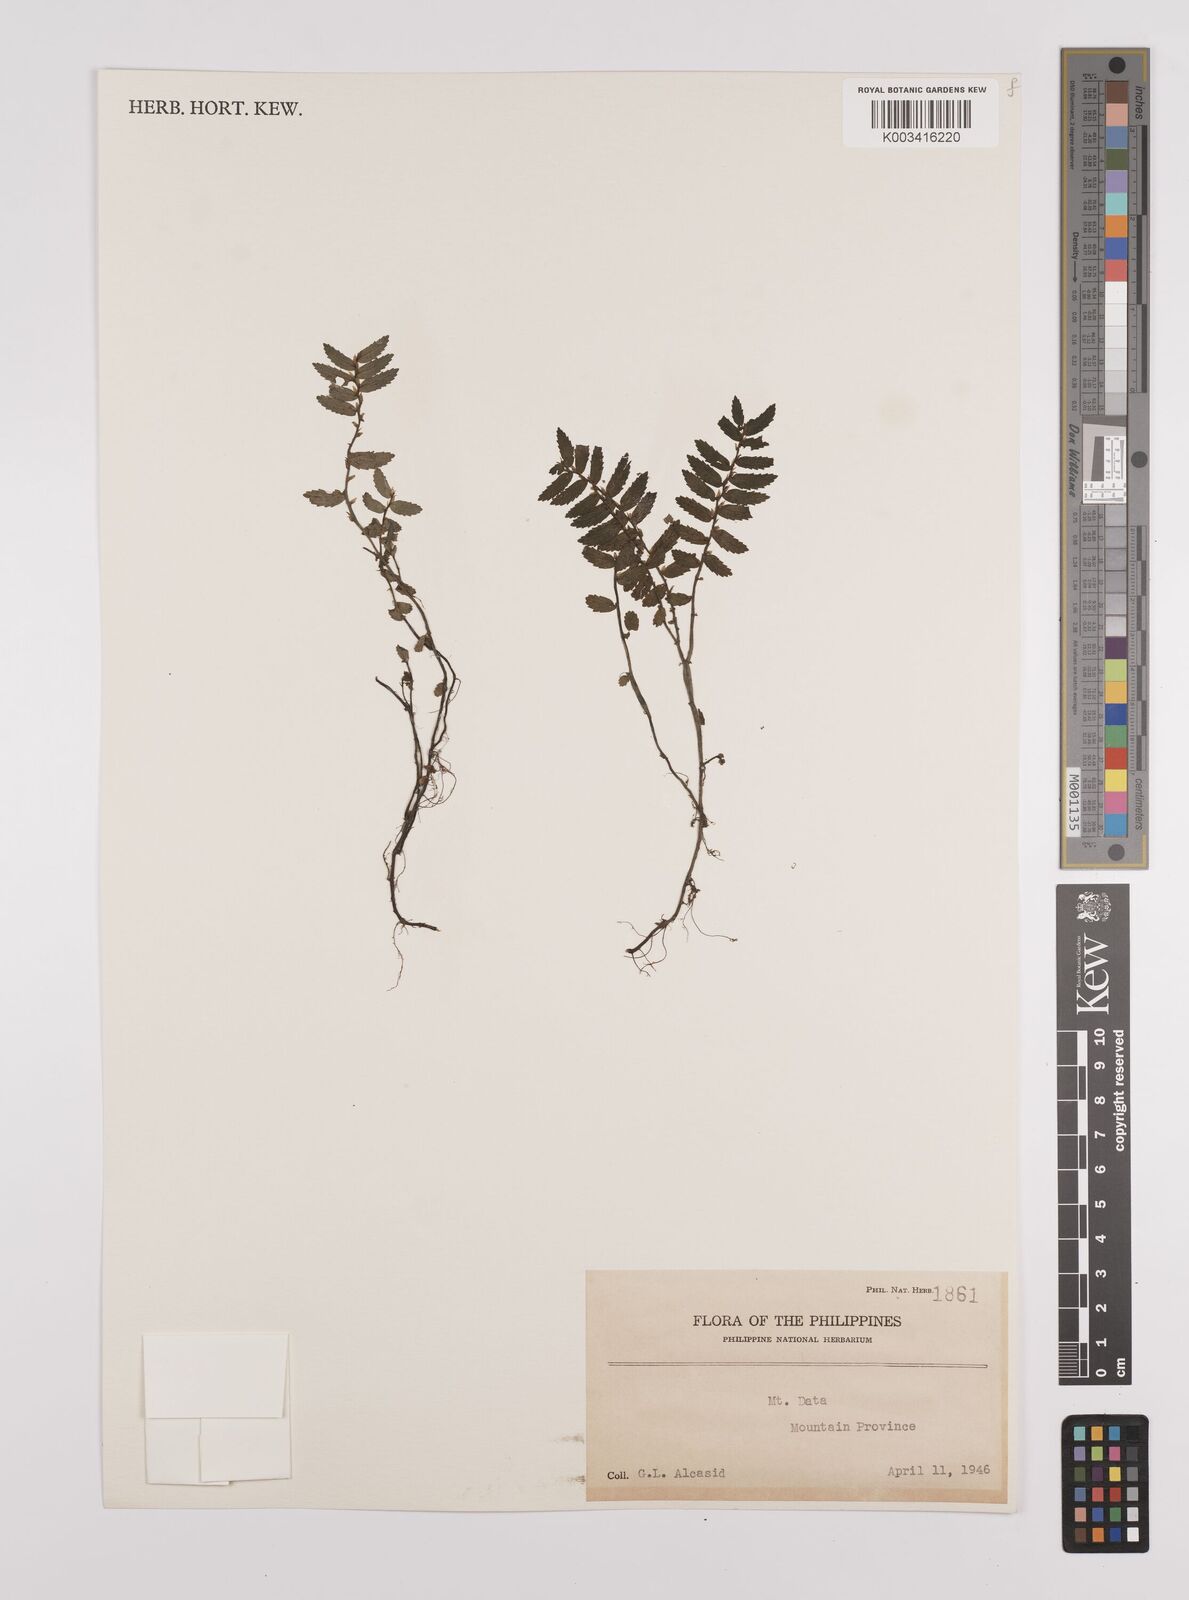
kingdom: Plantae
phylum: Tracheophyta
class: Magnoliopsida
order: Rosales
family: Urticaceae
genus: Elatostema
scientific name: Elatostema
